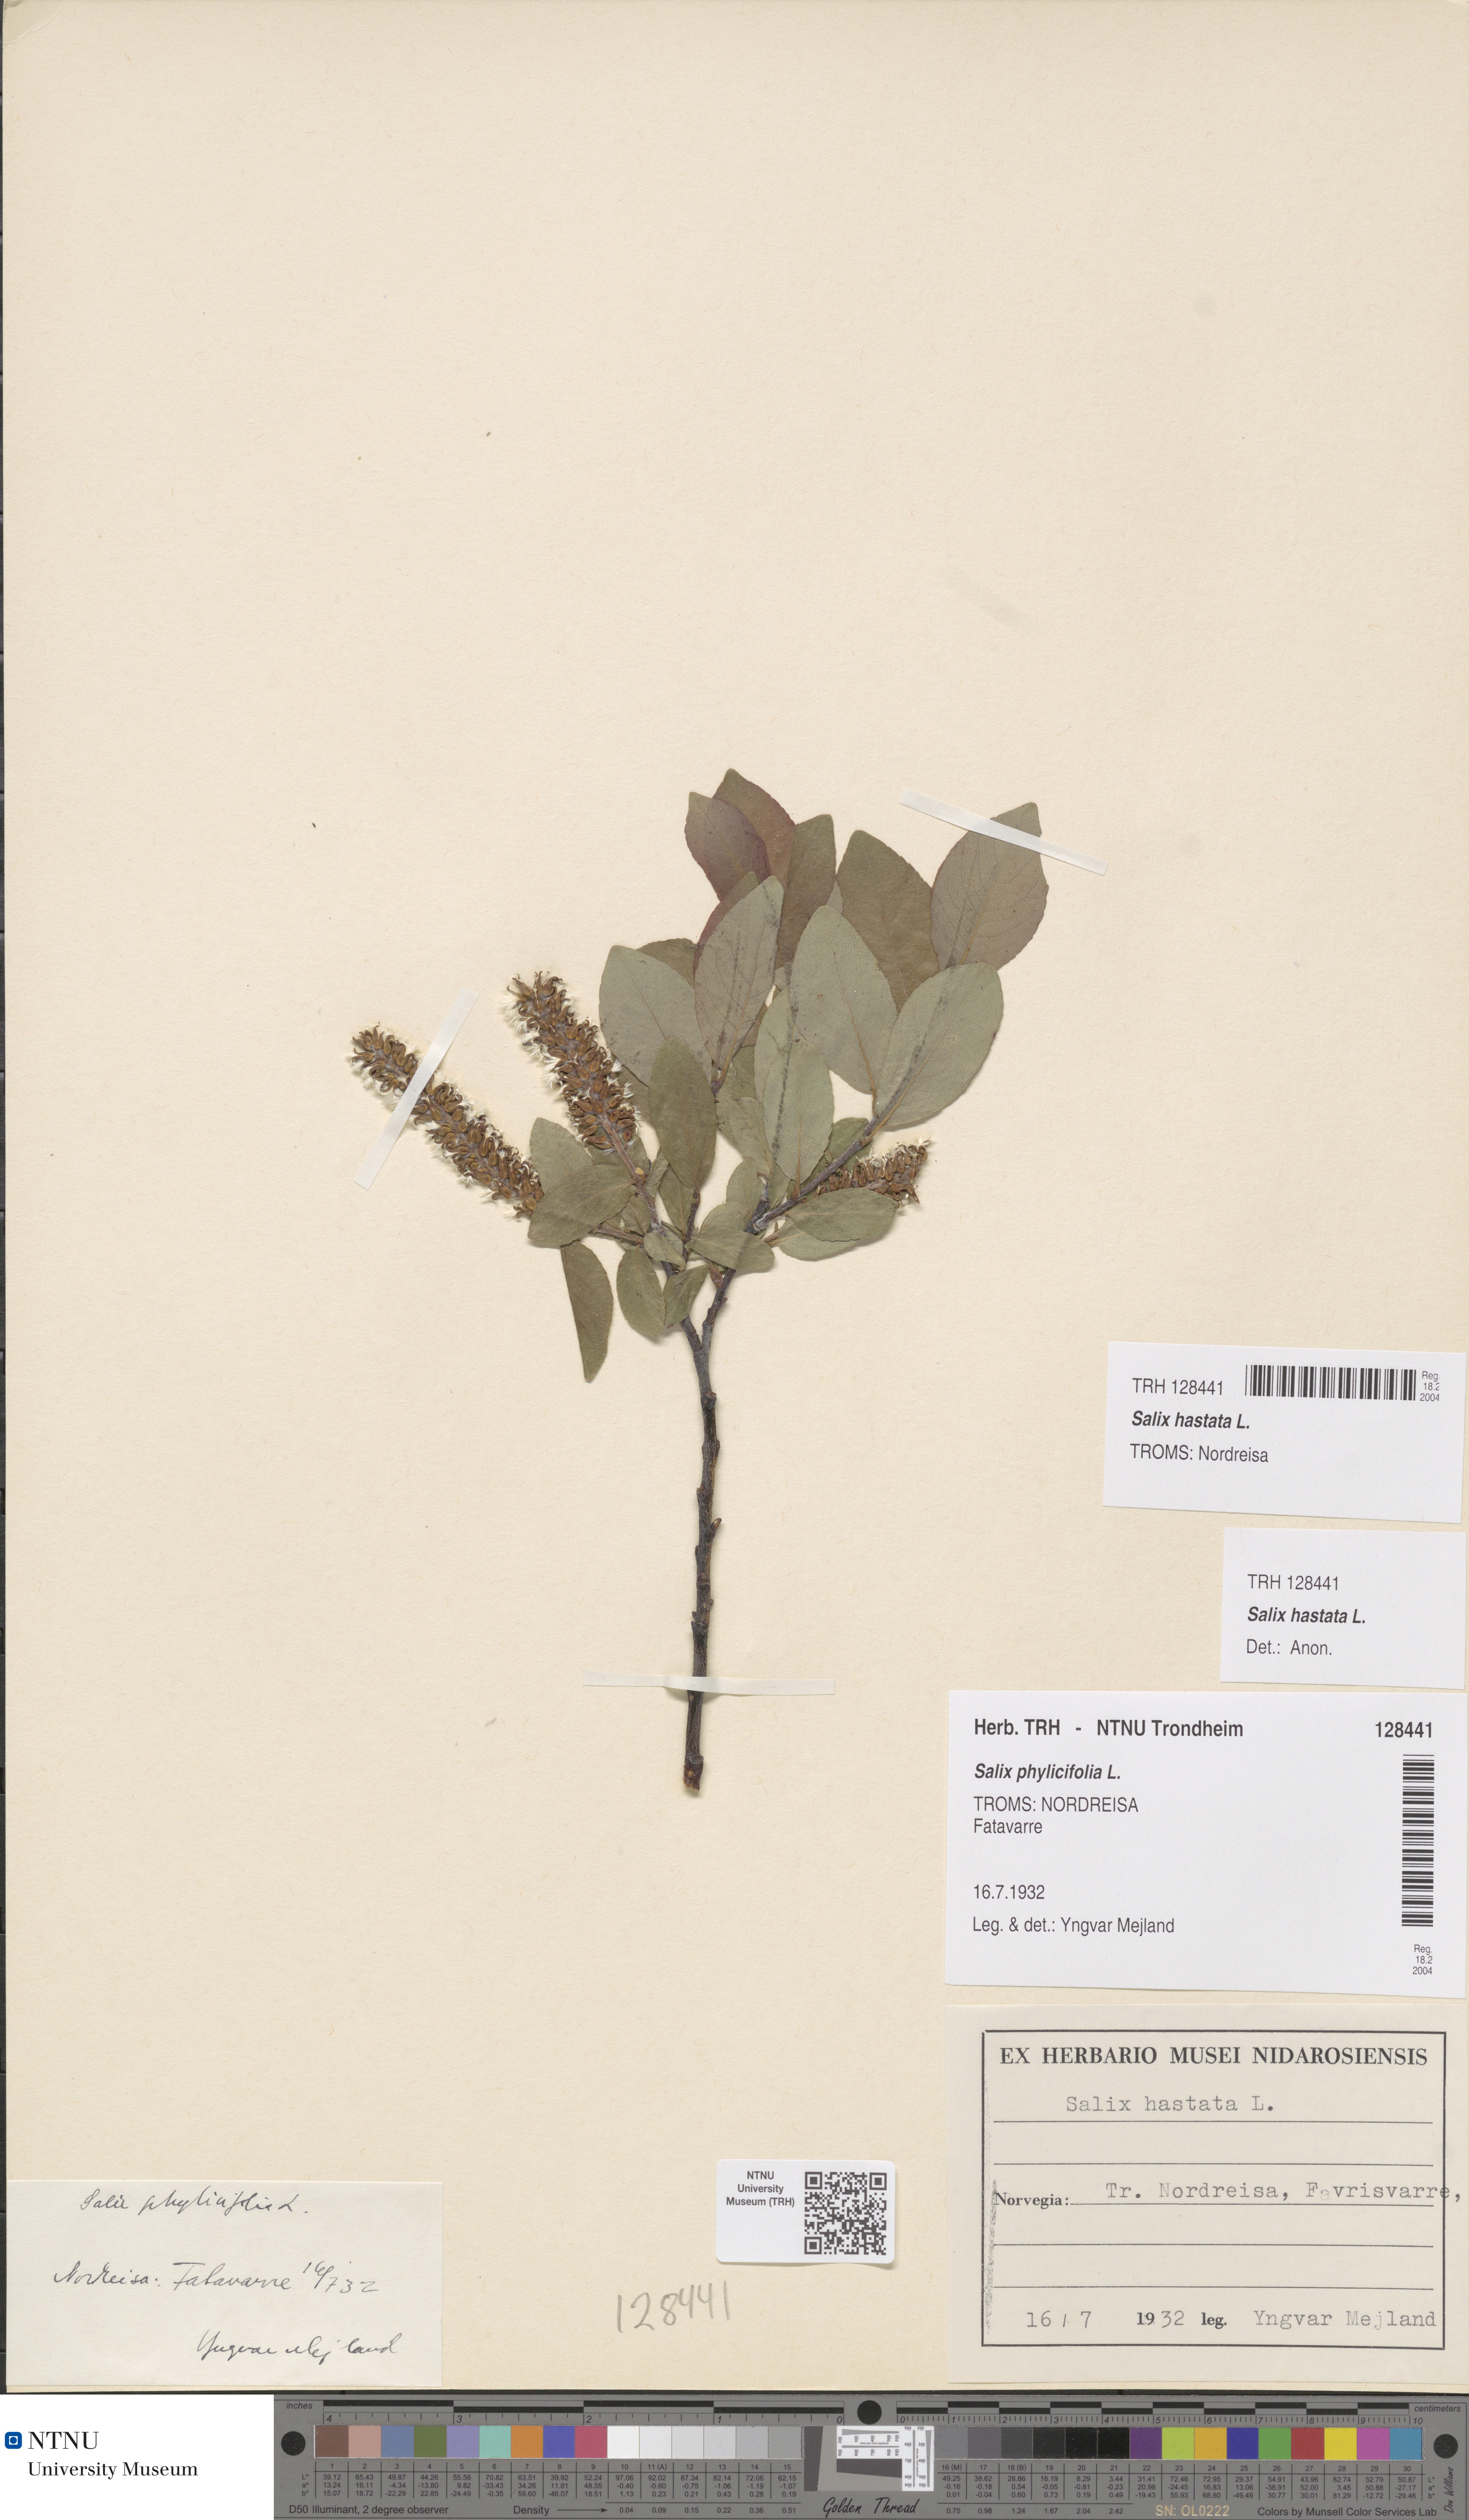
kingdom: Plantae
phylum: Tracheophyta
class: Magnoliopsida
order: Malpighiales
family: Salicaceae
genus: Salix
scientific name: Salix hastata
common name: Halberd willow
